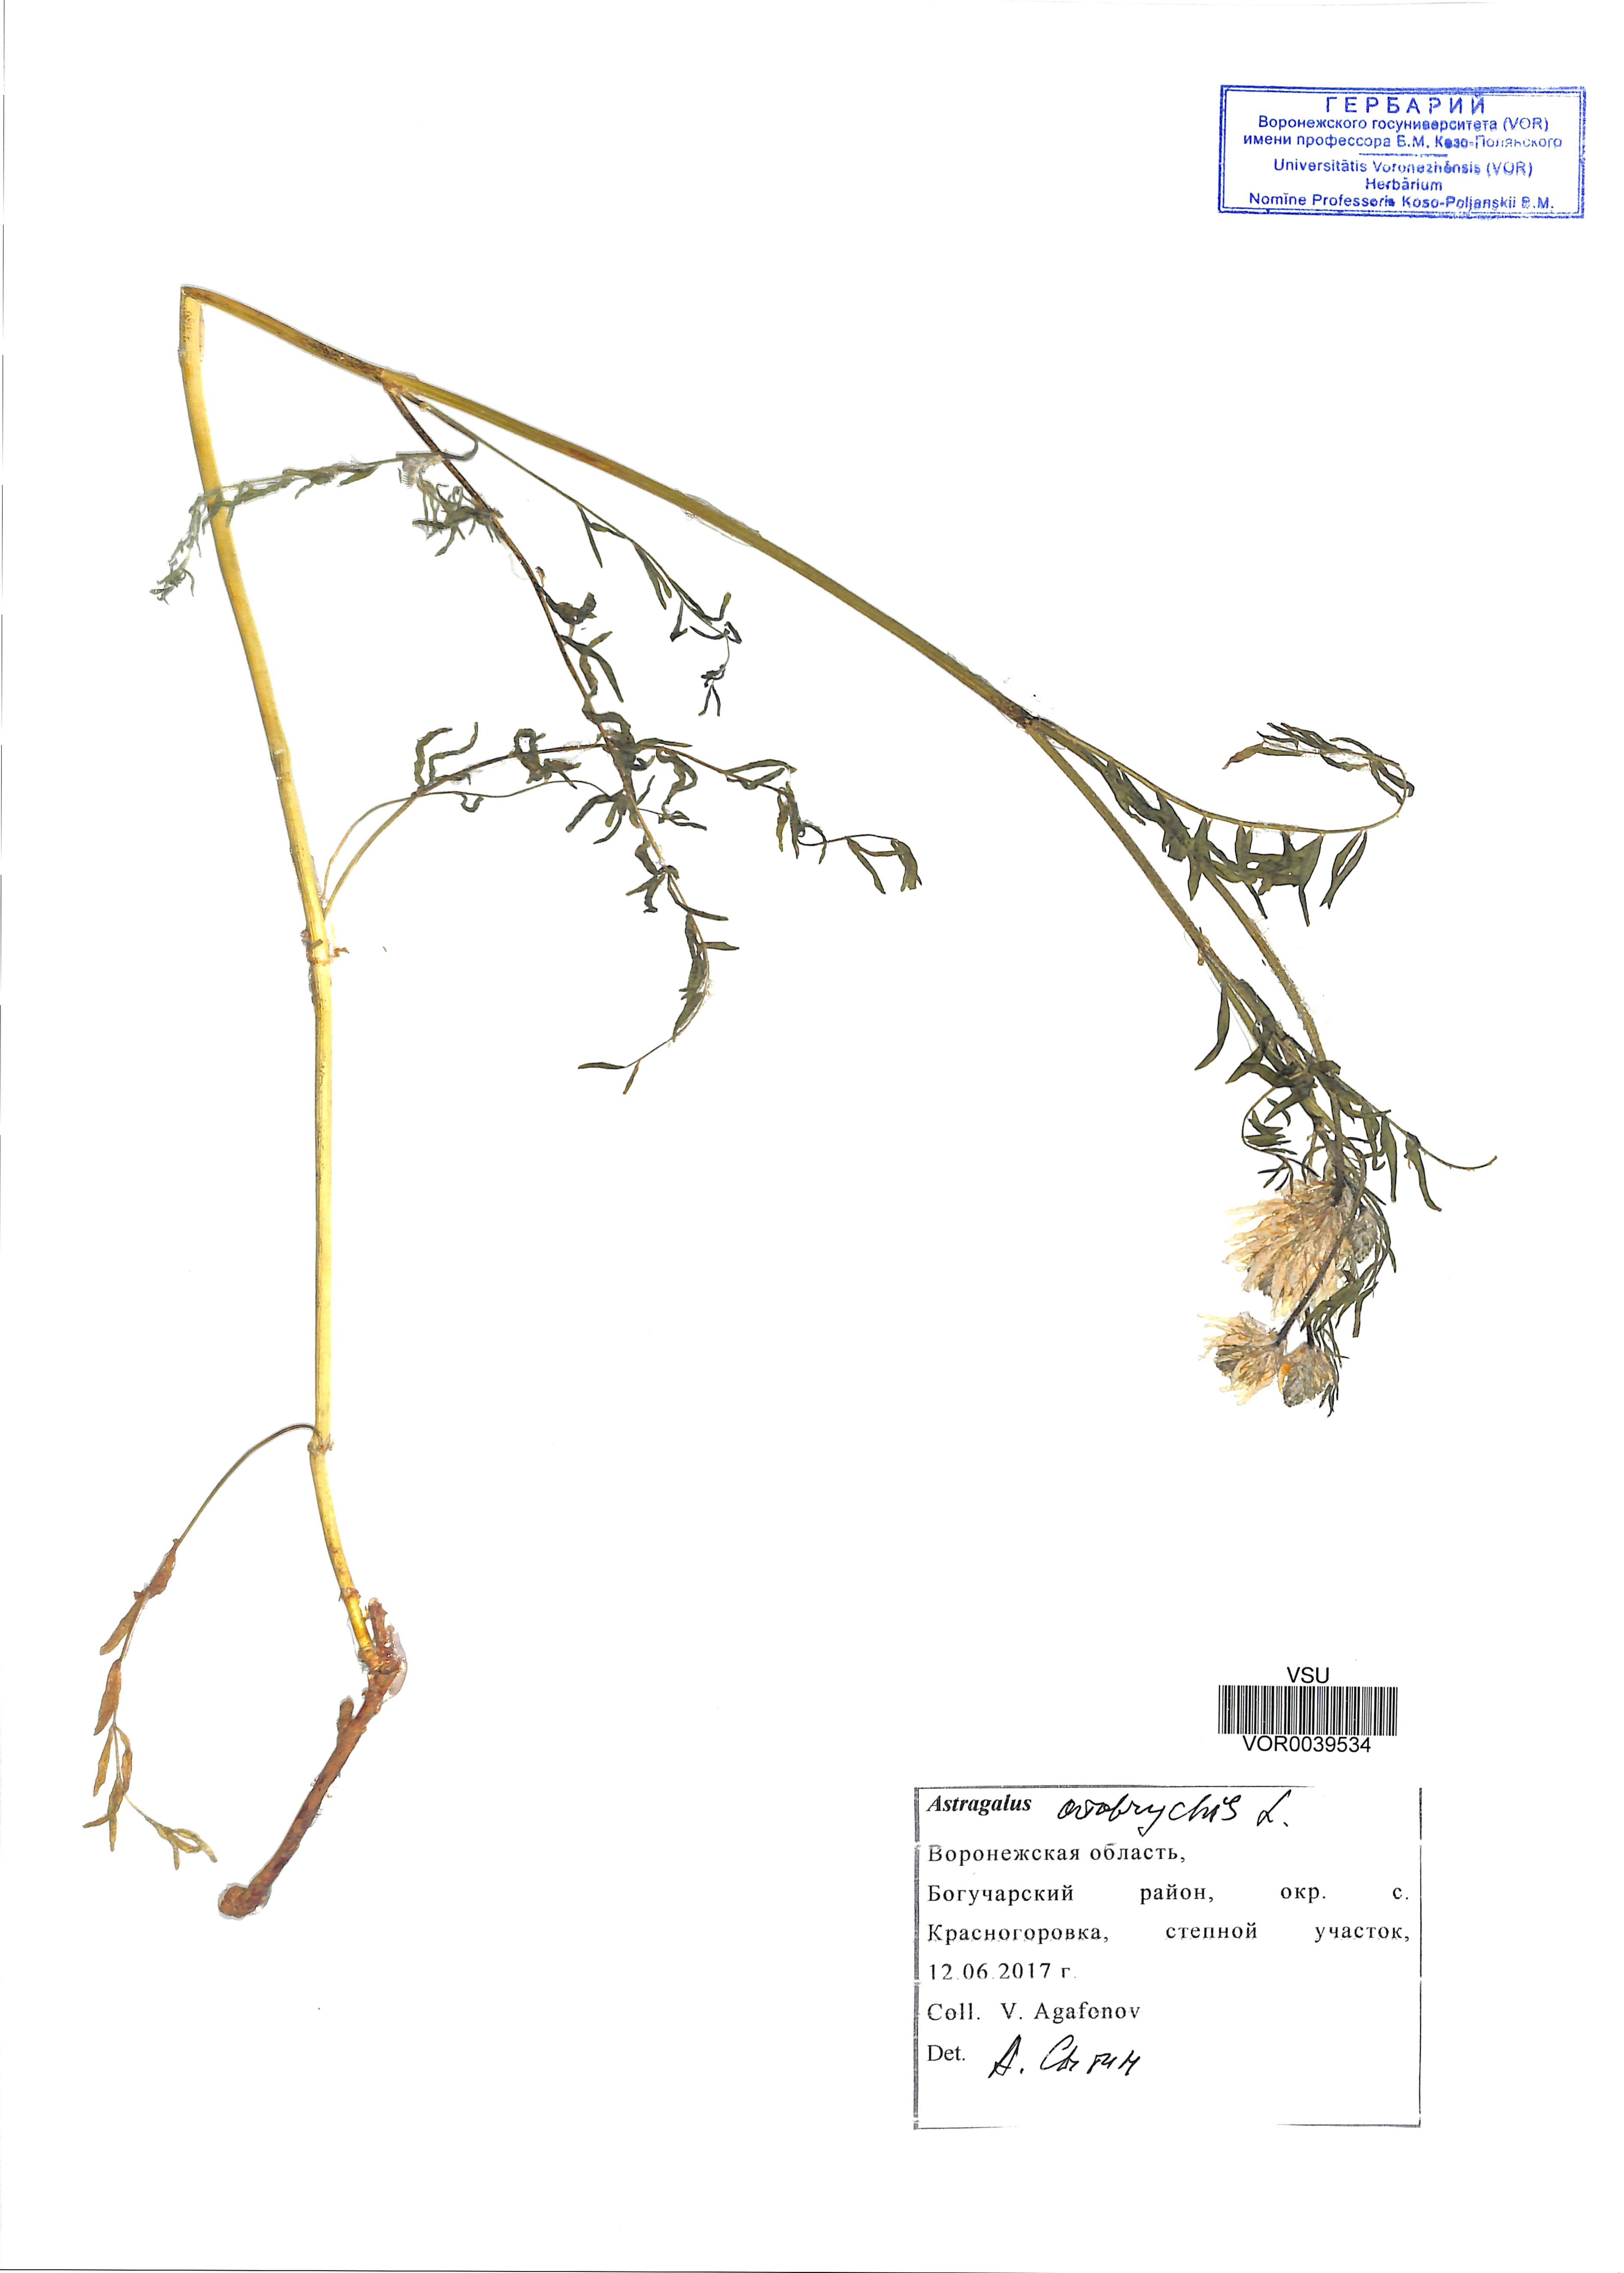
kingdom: Plantae
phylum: Tracheophyta
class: Magnoliopsida
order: Fabales
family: Fabaceae
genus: Astragalus
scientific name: Astragalus onobrychis
